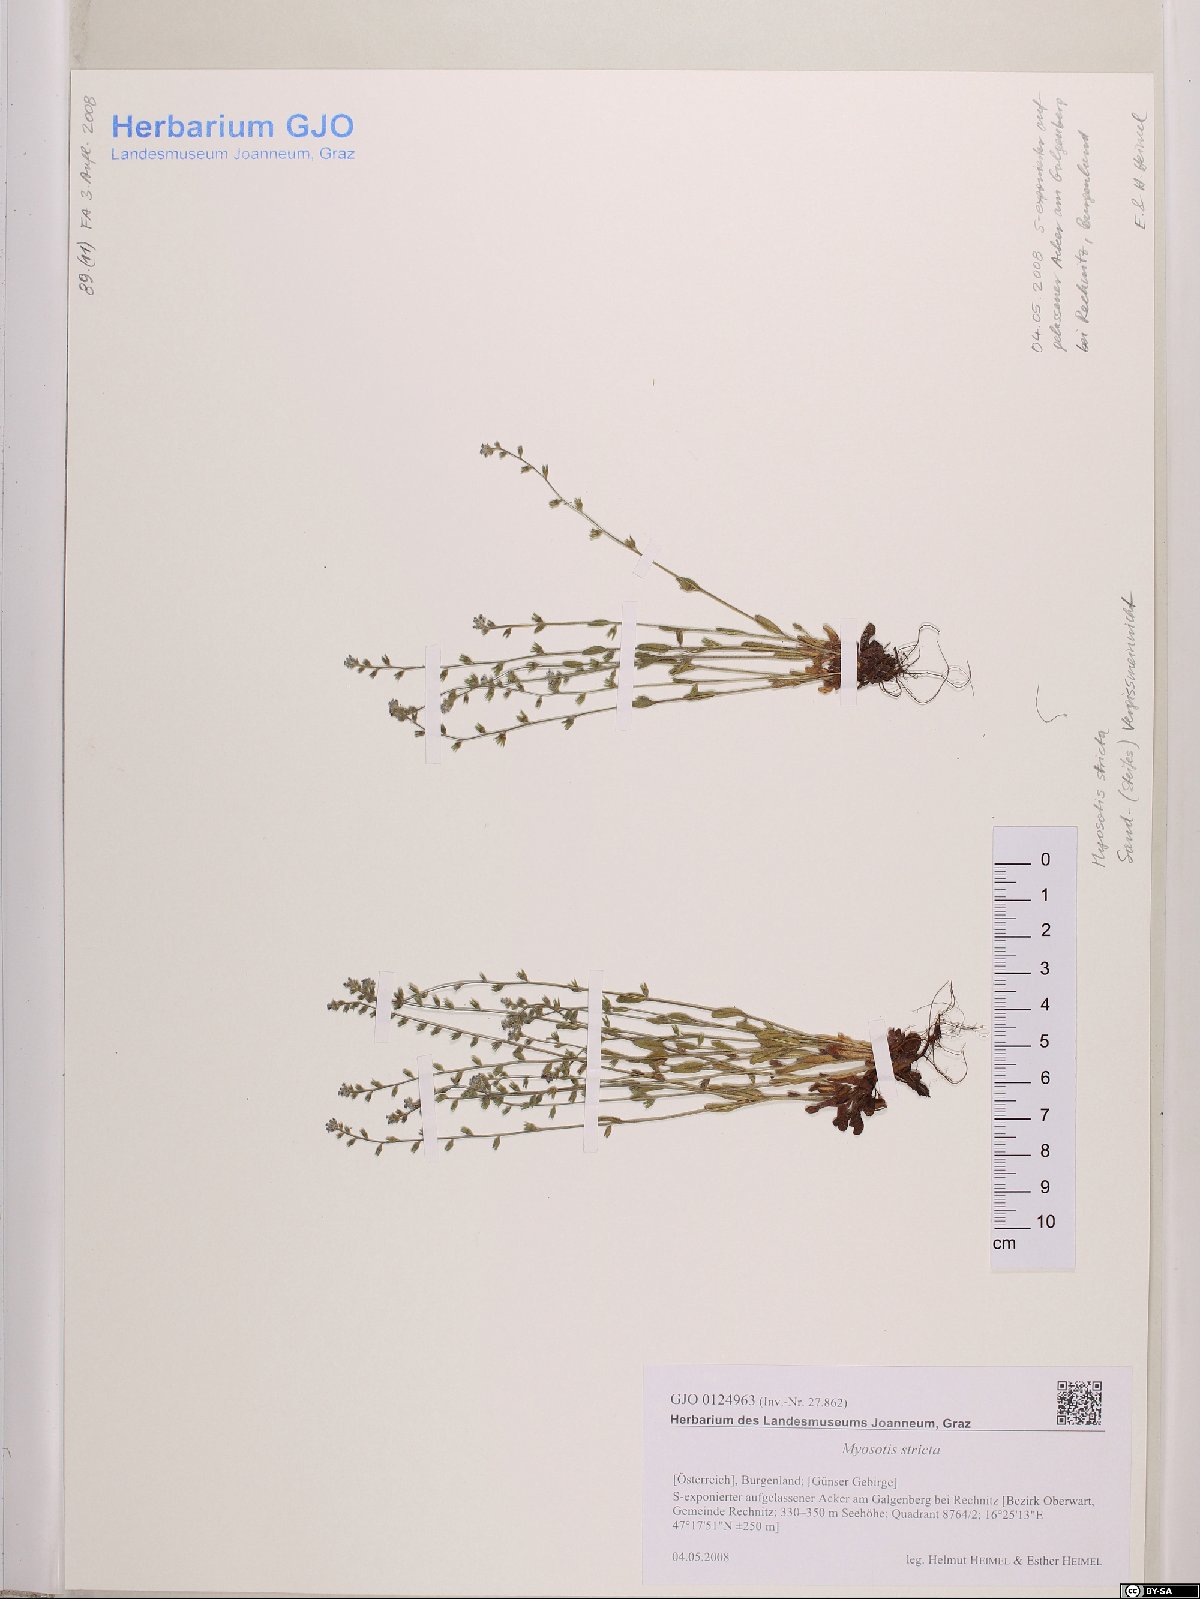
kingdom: Plantae
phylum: Tracheophyta
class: Magnoliopsida
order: Boraginales
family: Boraginaceae
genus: Myosotis
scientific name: Myosotis stricta
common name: Strict forget-me-not
